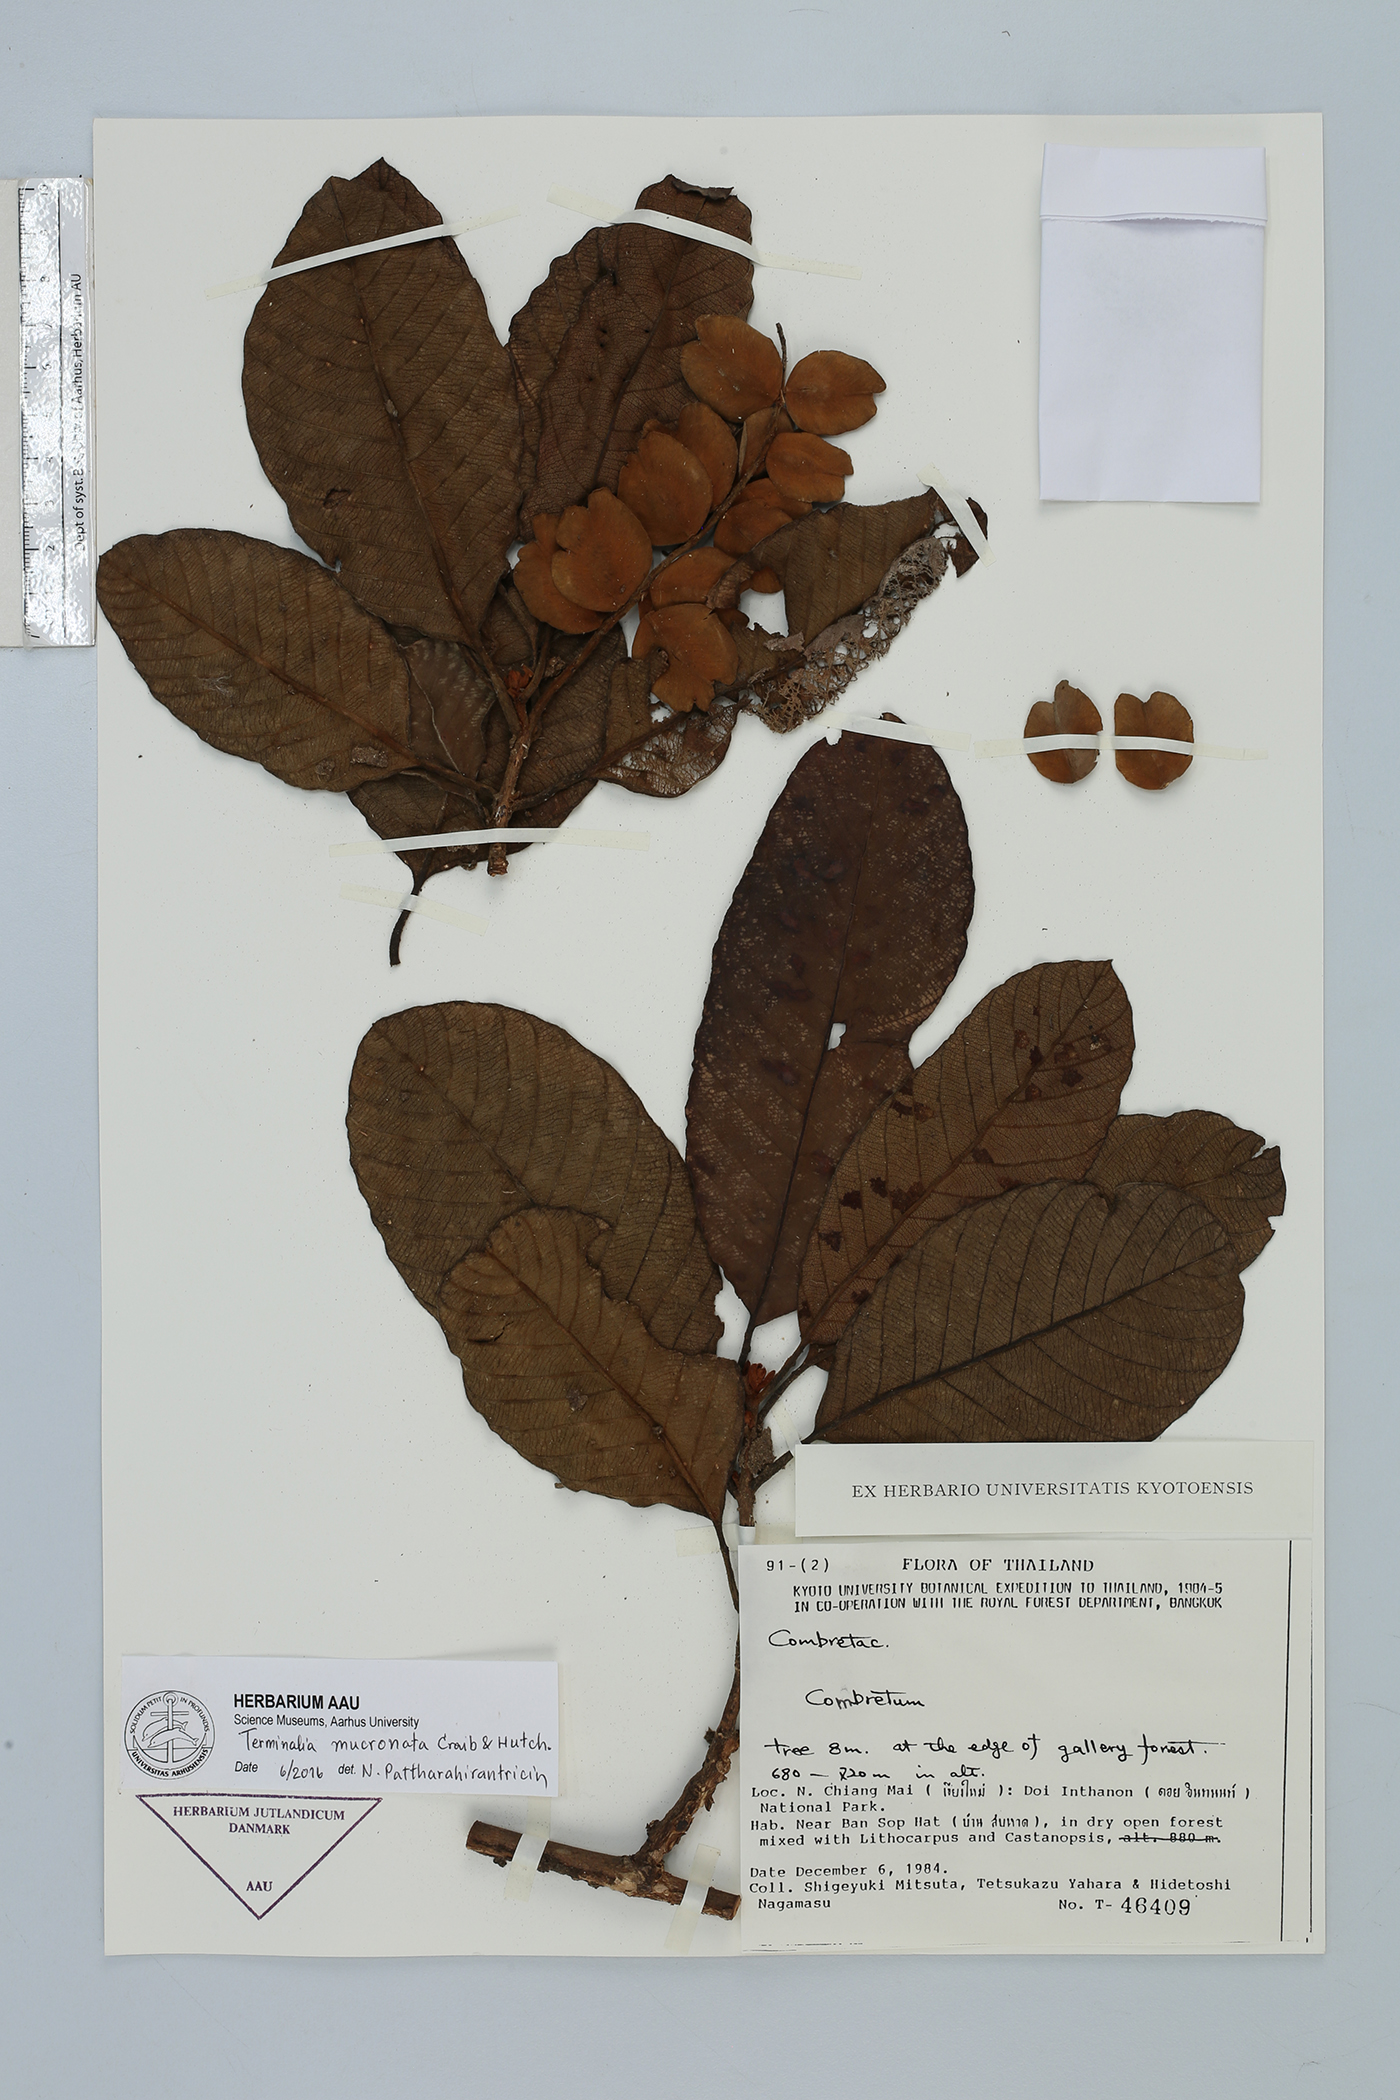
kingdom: Plantae
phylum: Tracheophyta
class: Magnoliopsida
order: Myrtales
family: Combretaceae
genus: Terminalia
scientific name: Terminalia corticosa
